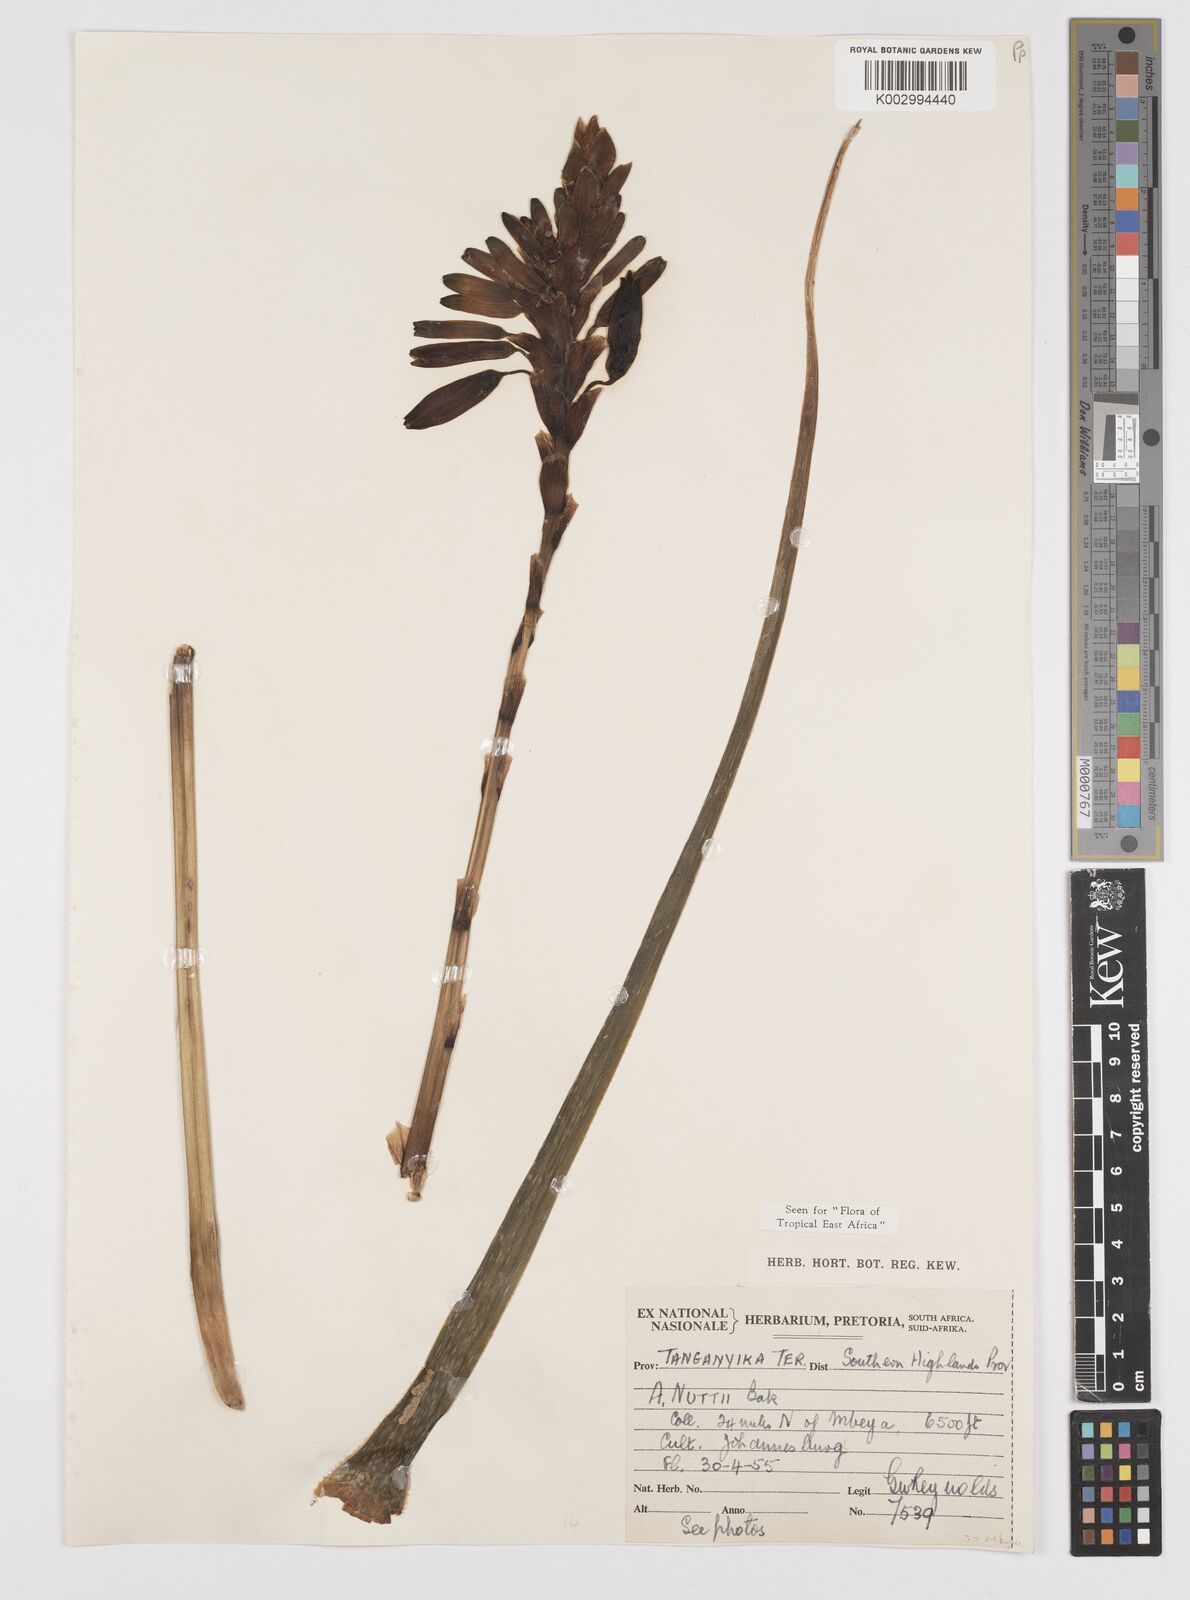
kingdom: Plantae
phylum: Tracheophyta
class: Liliopsida
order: Asparagales
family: Asphodelaceae
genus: Aloe
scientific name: Aloe nuttii
